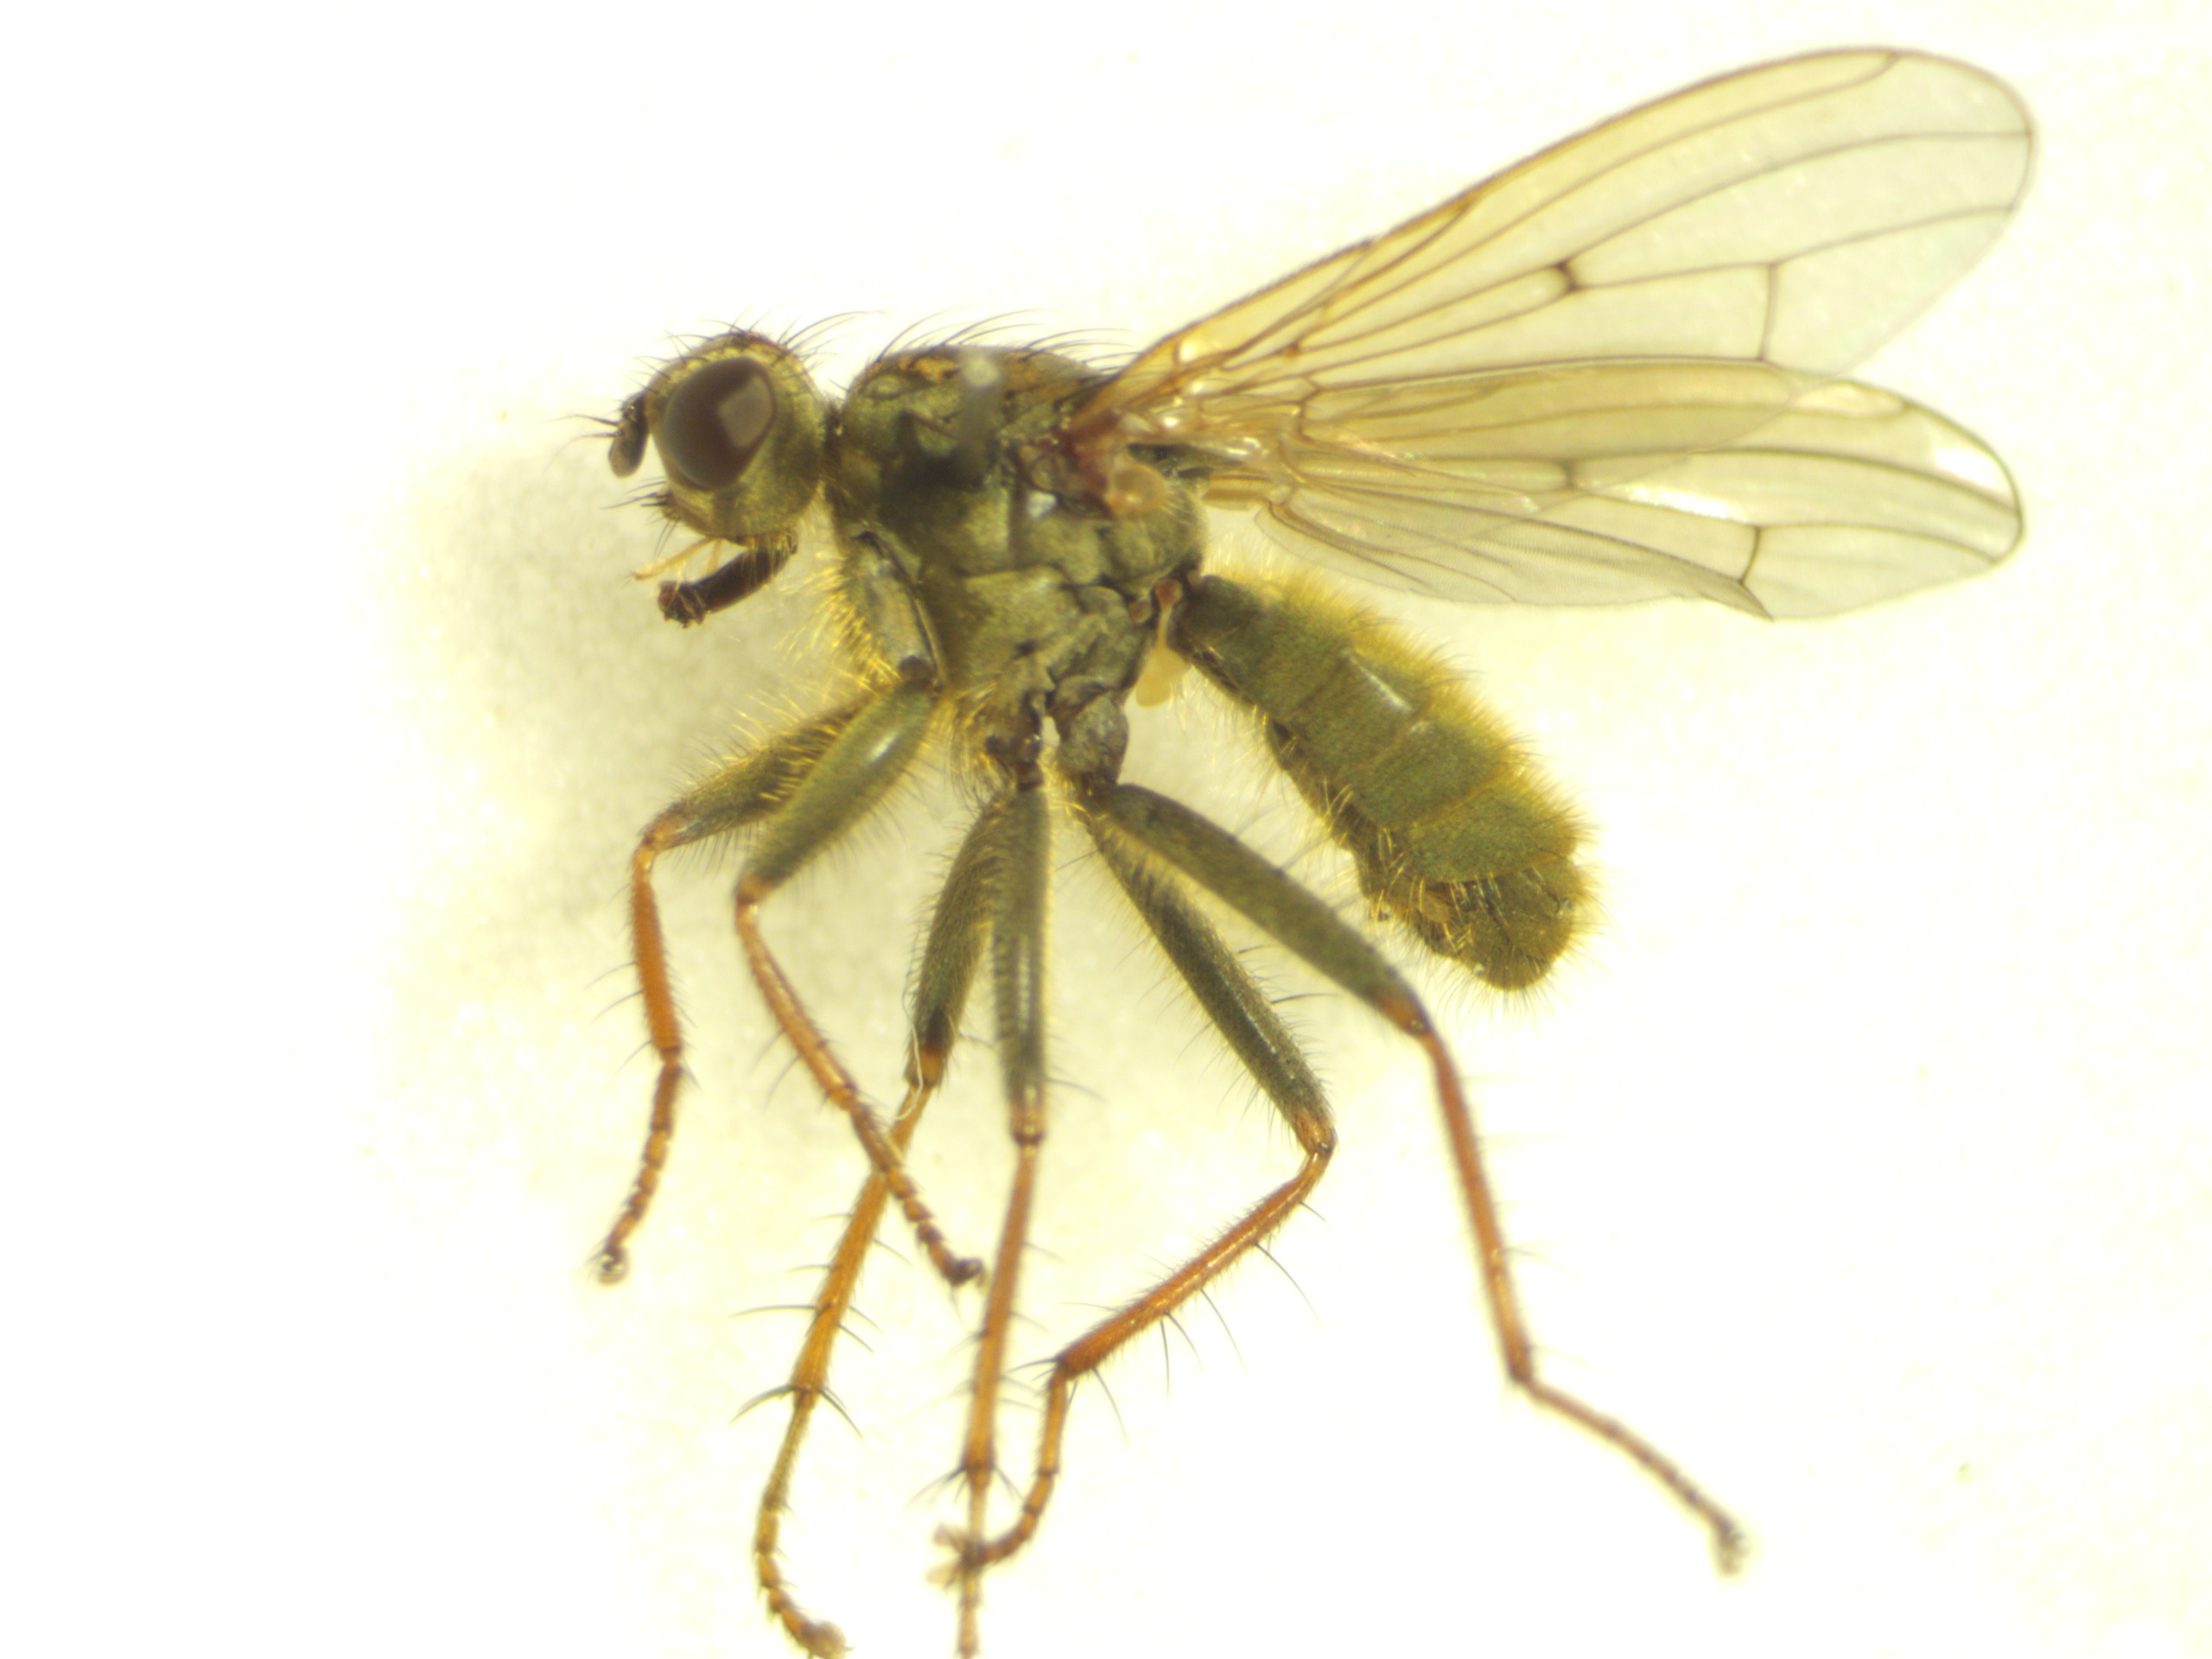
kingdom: Animalia
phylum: Arthropoda
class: Insecta
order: Diptera
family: Scathophagidae
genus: Scathophaga
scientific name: Scathophaga stercoraria
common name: Almindelig gødningsflue
